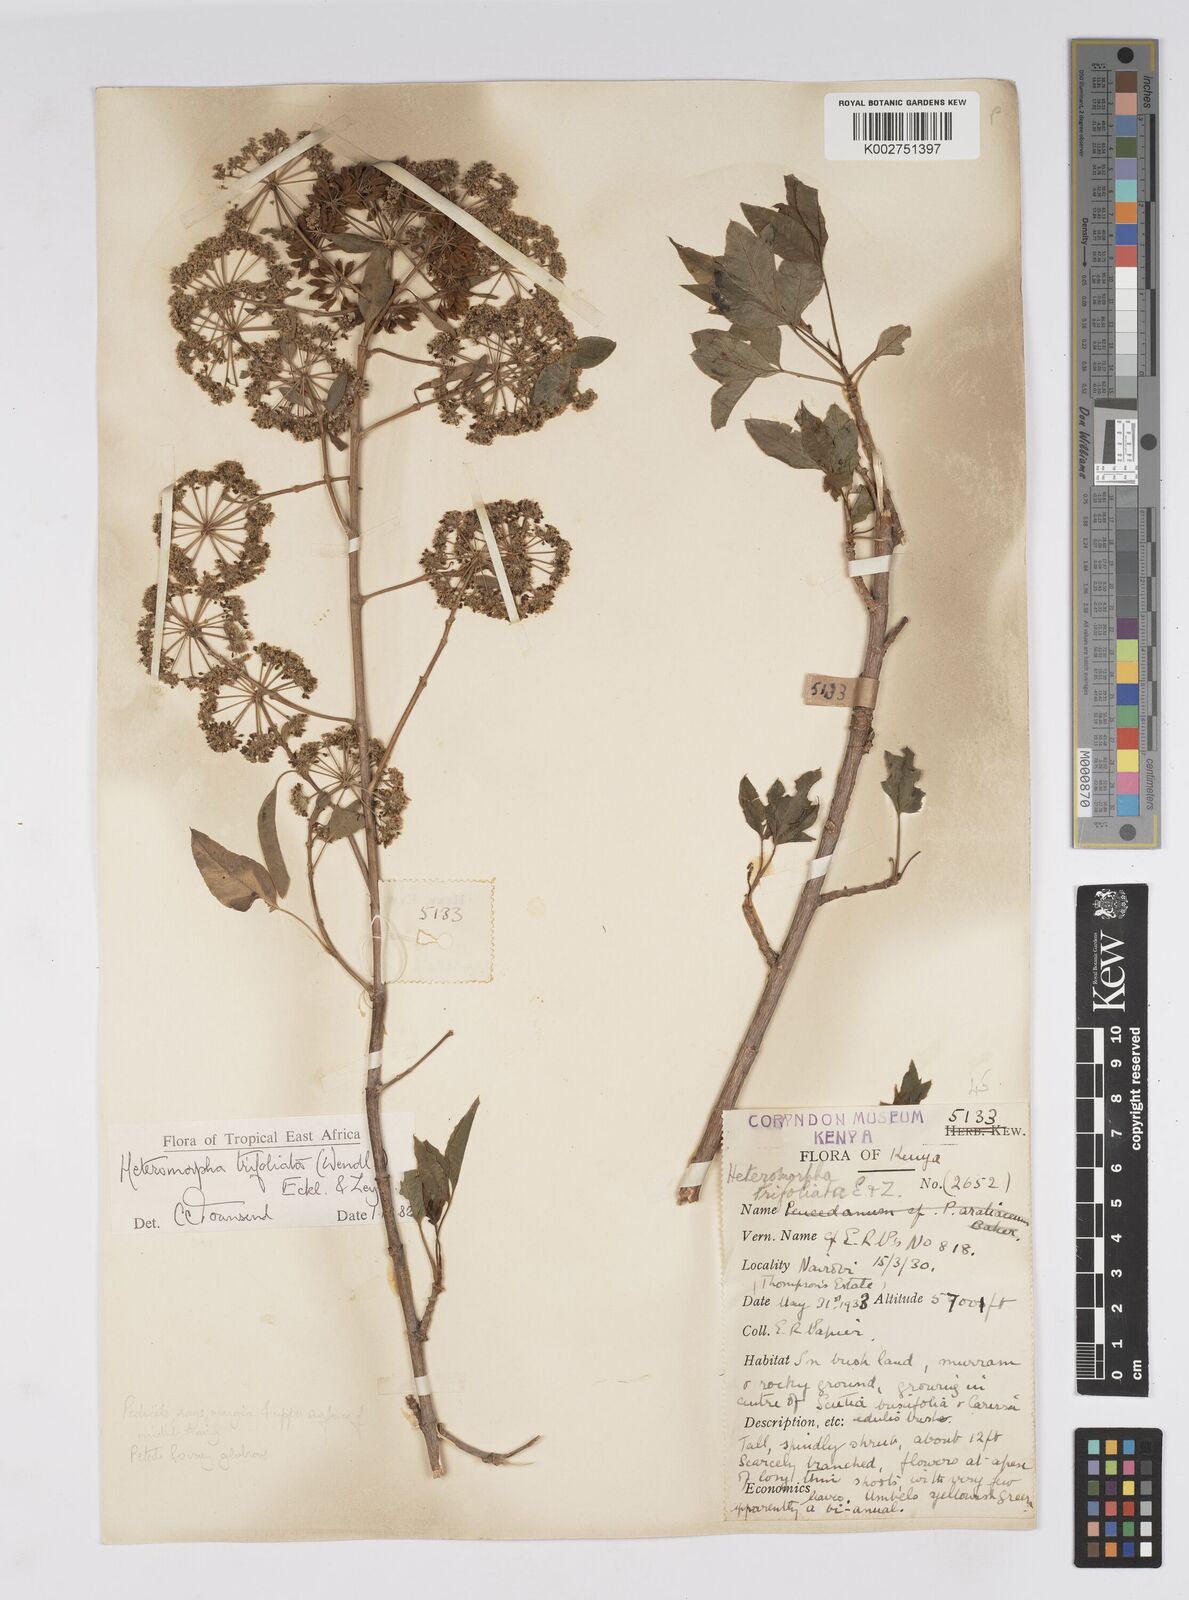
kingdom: Plantae
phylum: Tracheophyta
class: Magnoliopsida
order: Apiales
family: Apiaceae
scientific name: Apiaceae
